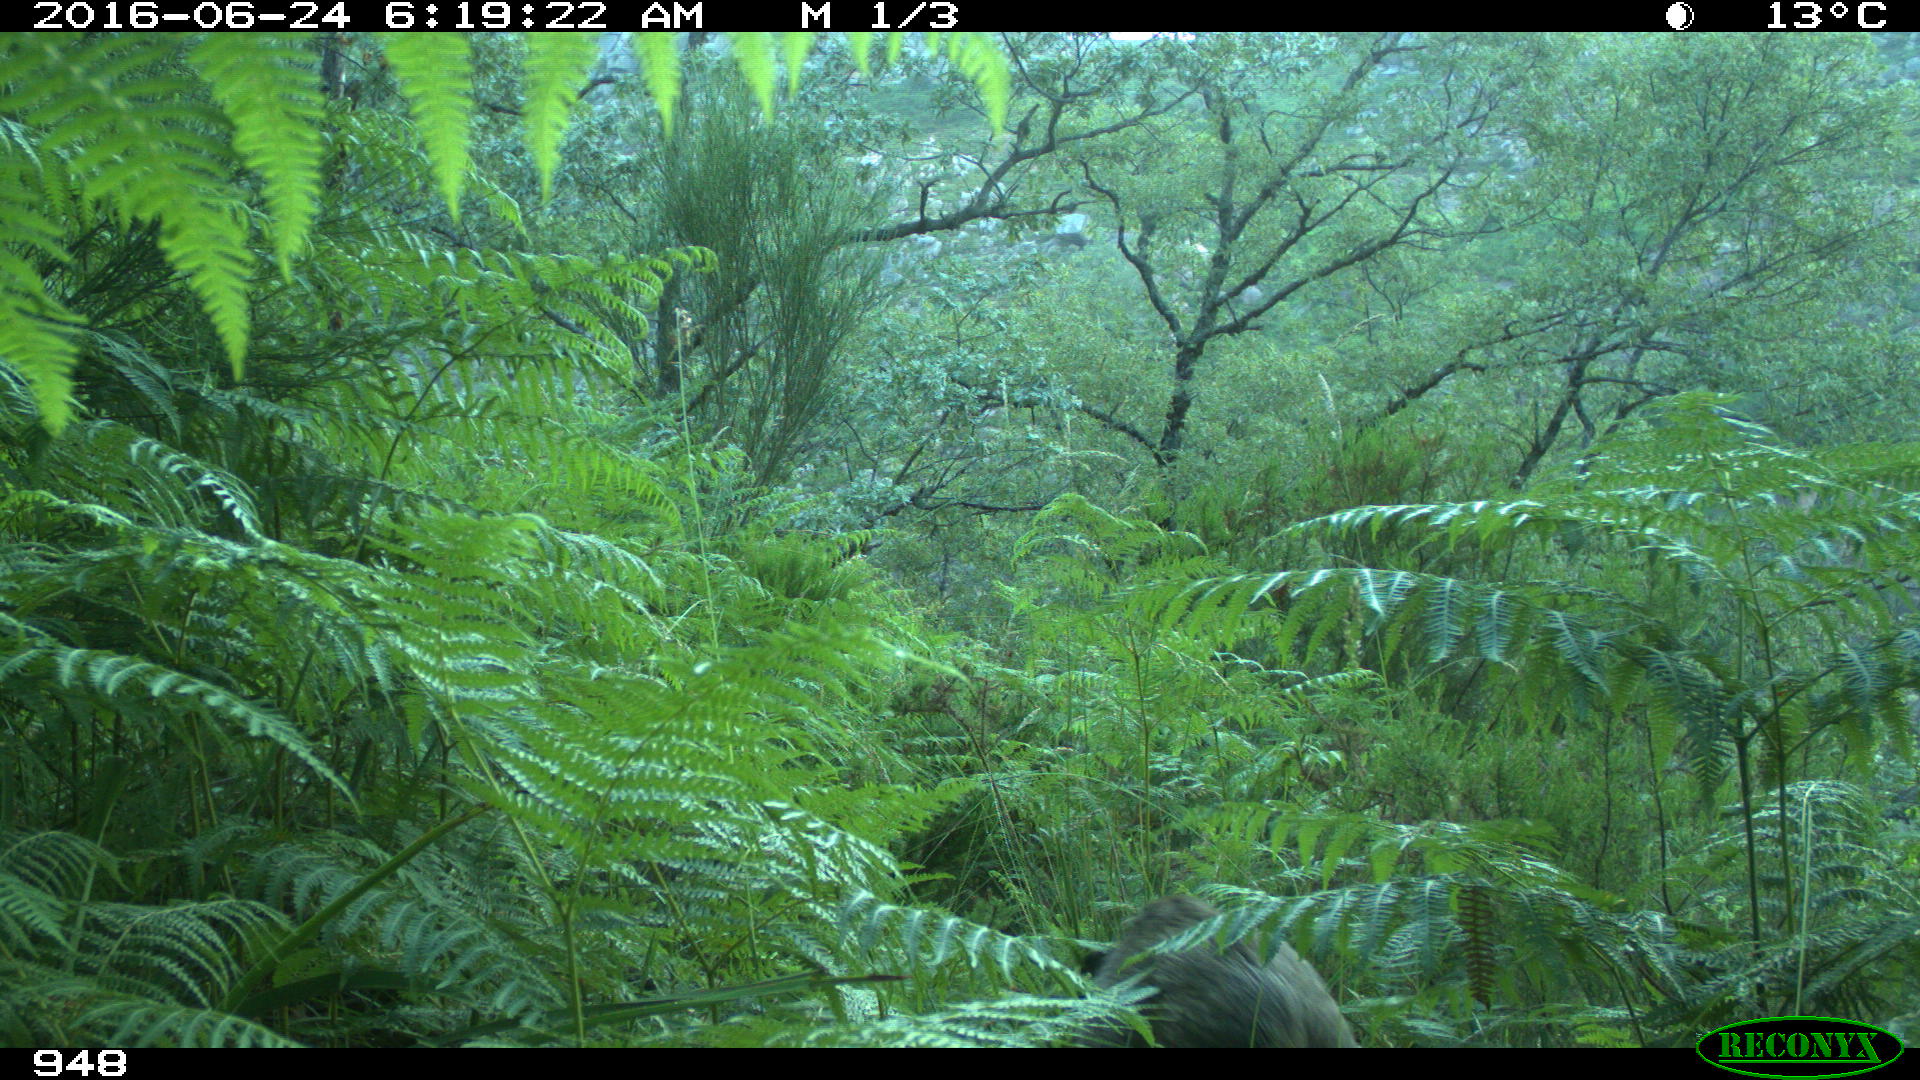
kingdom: Animalia
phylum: Chordata
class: Mammalia
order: Artiodactyla
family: Suidae
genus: Sus
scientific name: Sus scrofa
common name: Wild boar
